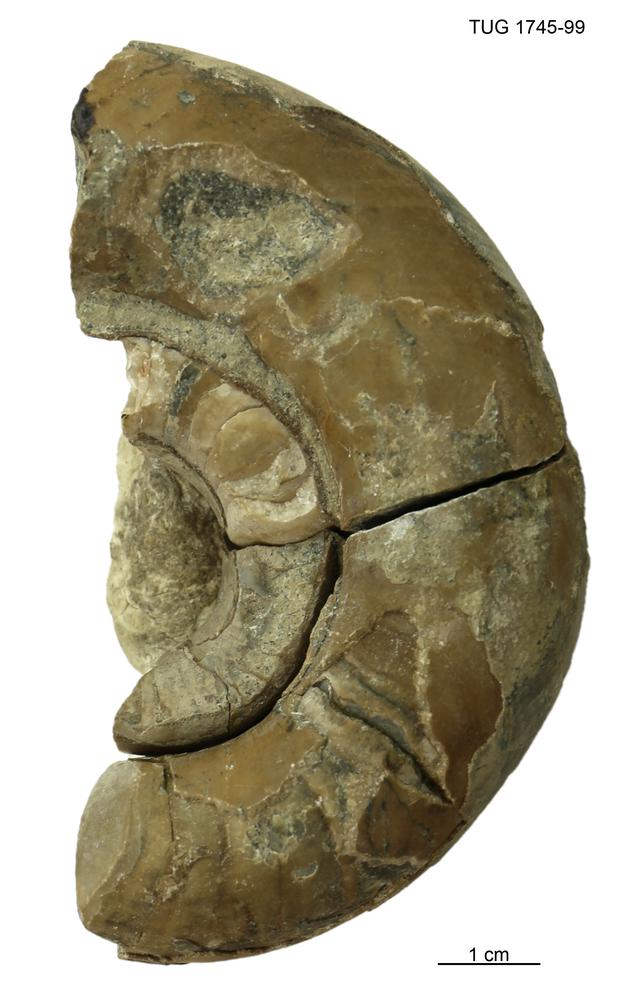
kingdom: Animalia
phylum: Mollusca
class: Cephalopoda
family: Estonioceratidae
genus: Estonioceras
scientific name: Estonioceras
